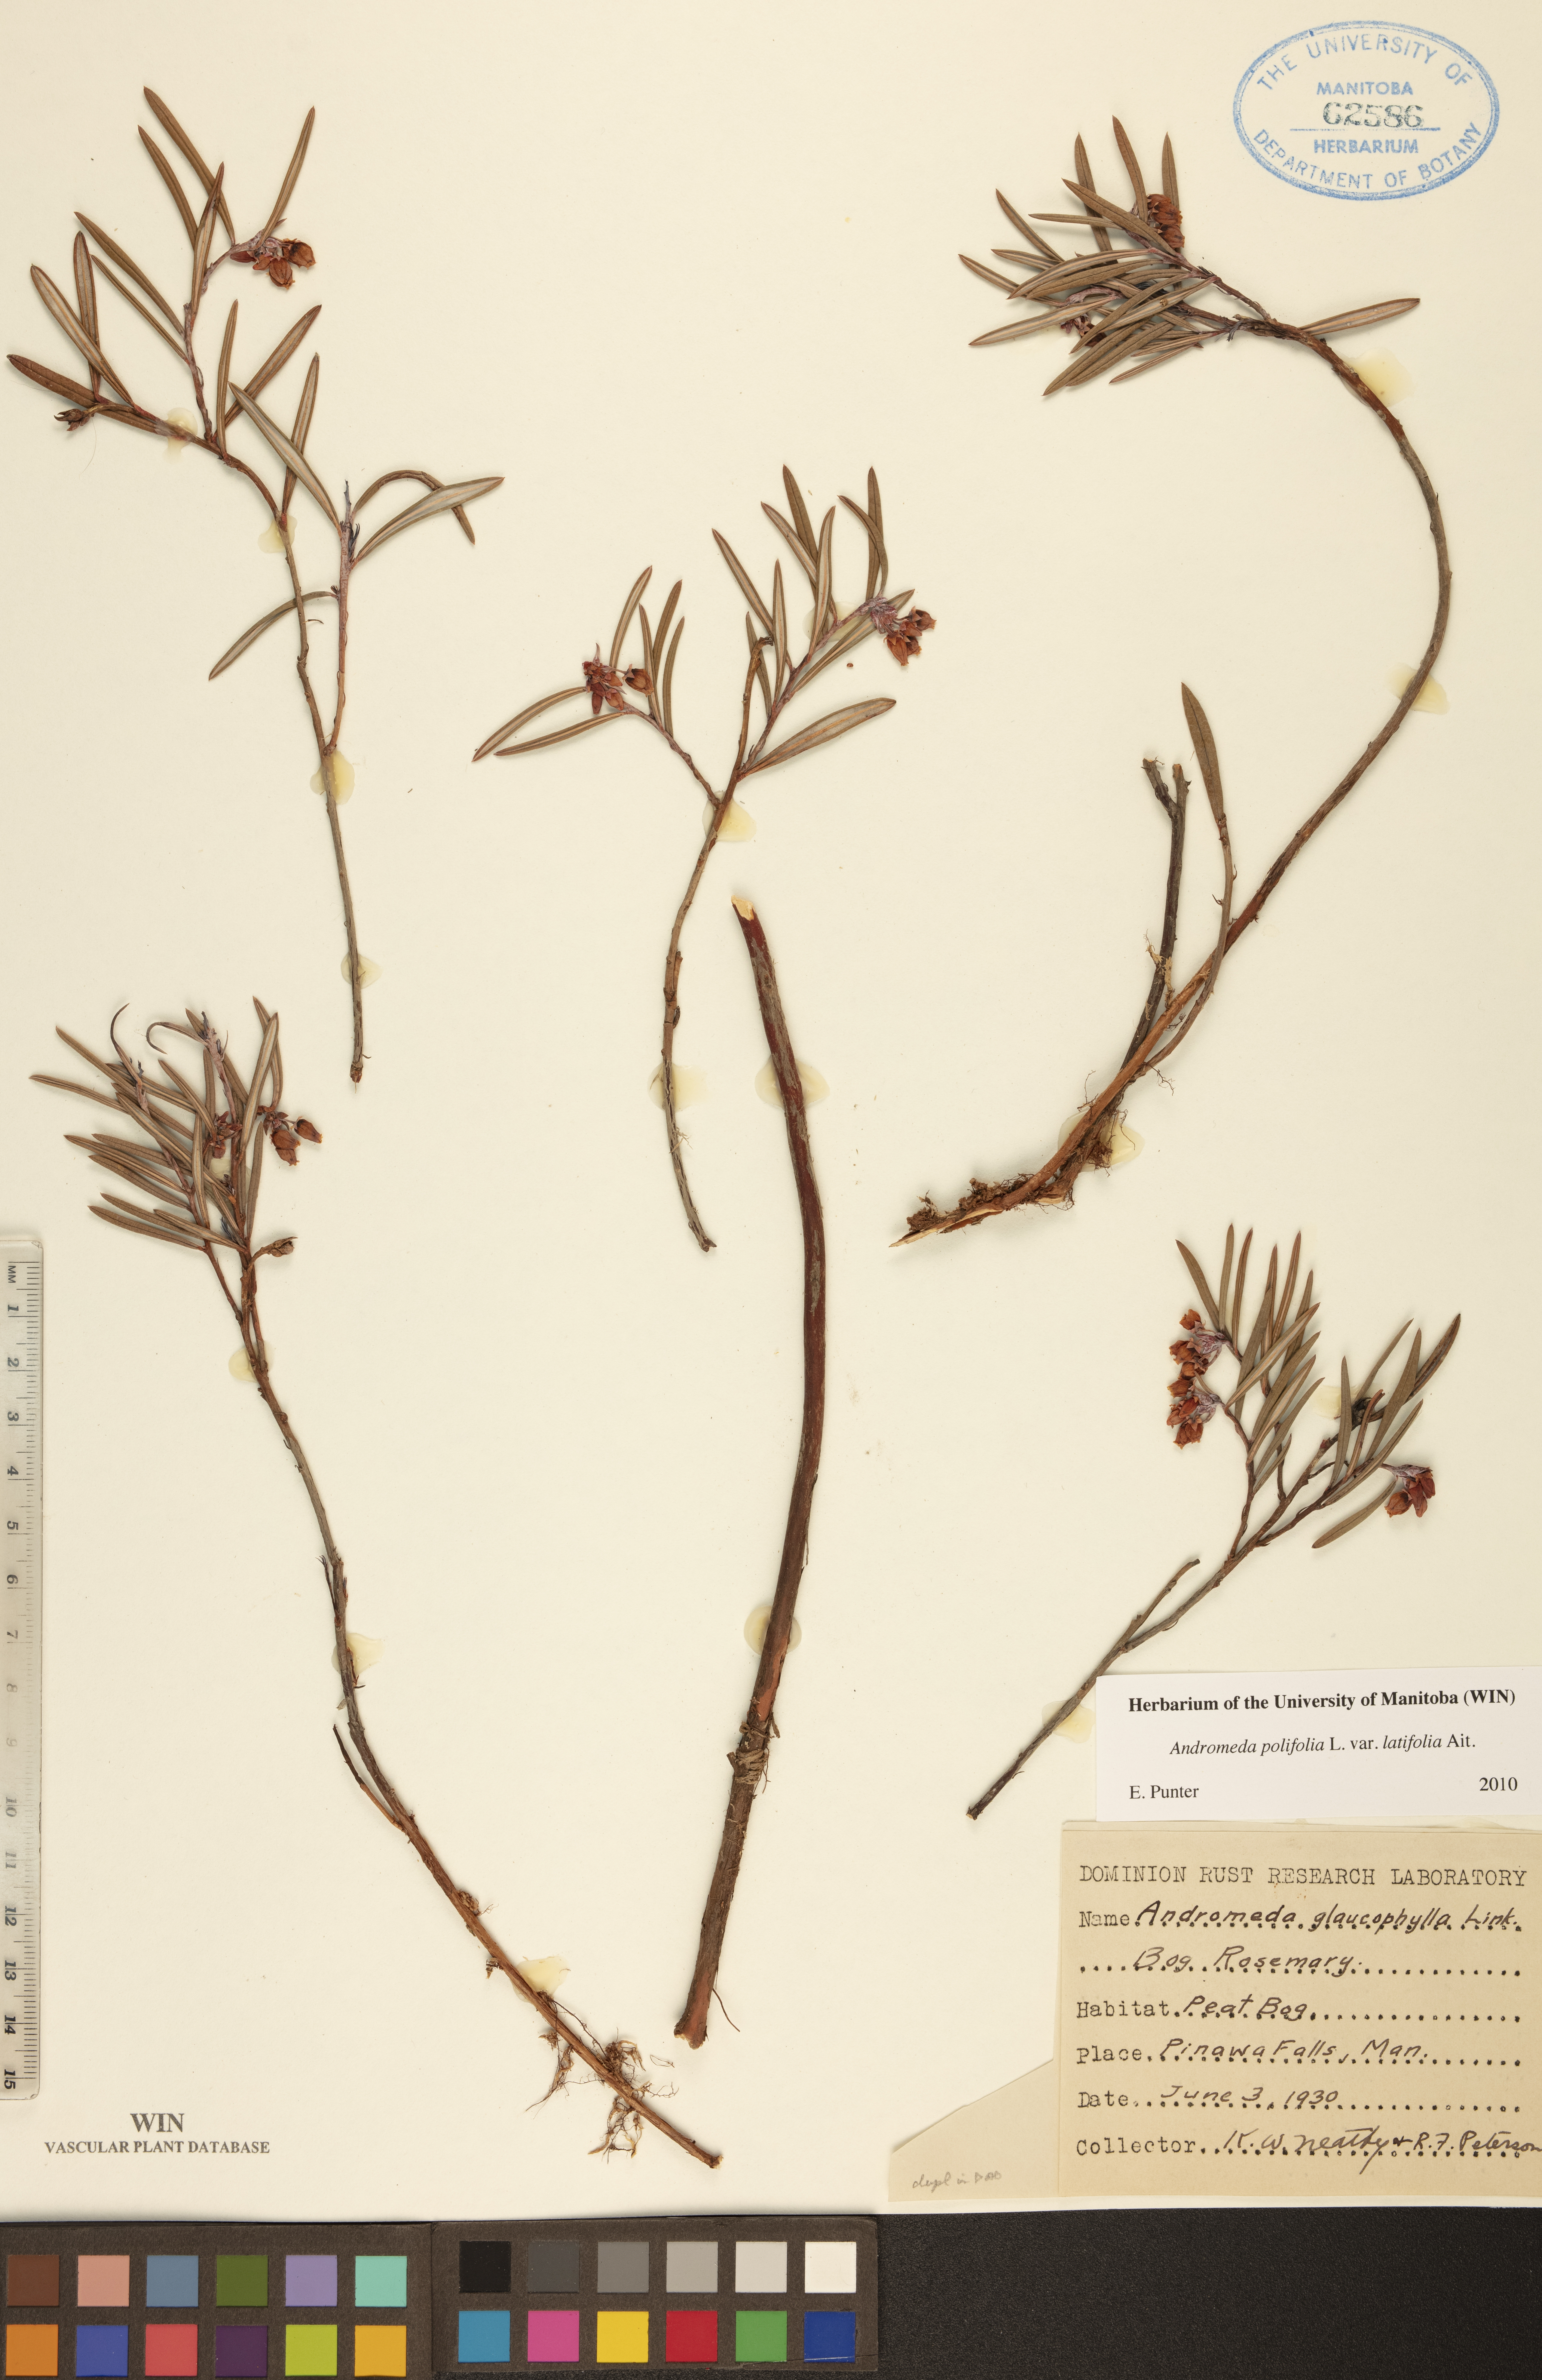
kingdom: Plantae
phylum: Tracheophyta
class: Magnoliopsida
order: Ericales
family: Ericaceae
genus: Andromeda
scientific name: Andromeda polifolia
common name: Bog-rosemary
